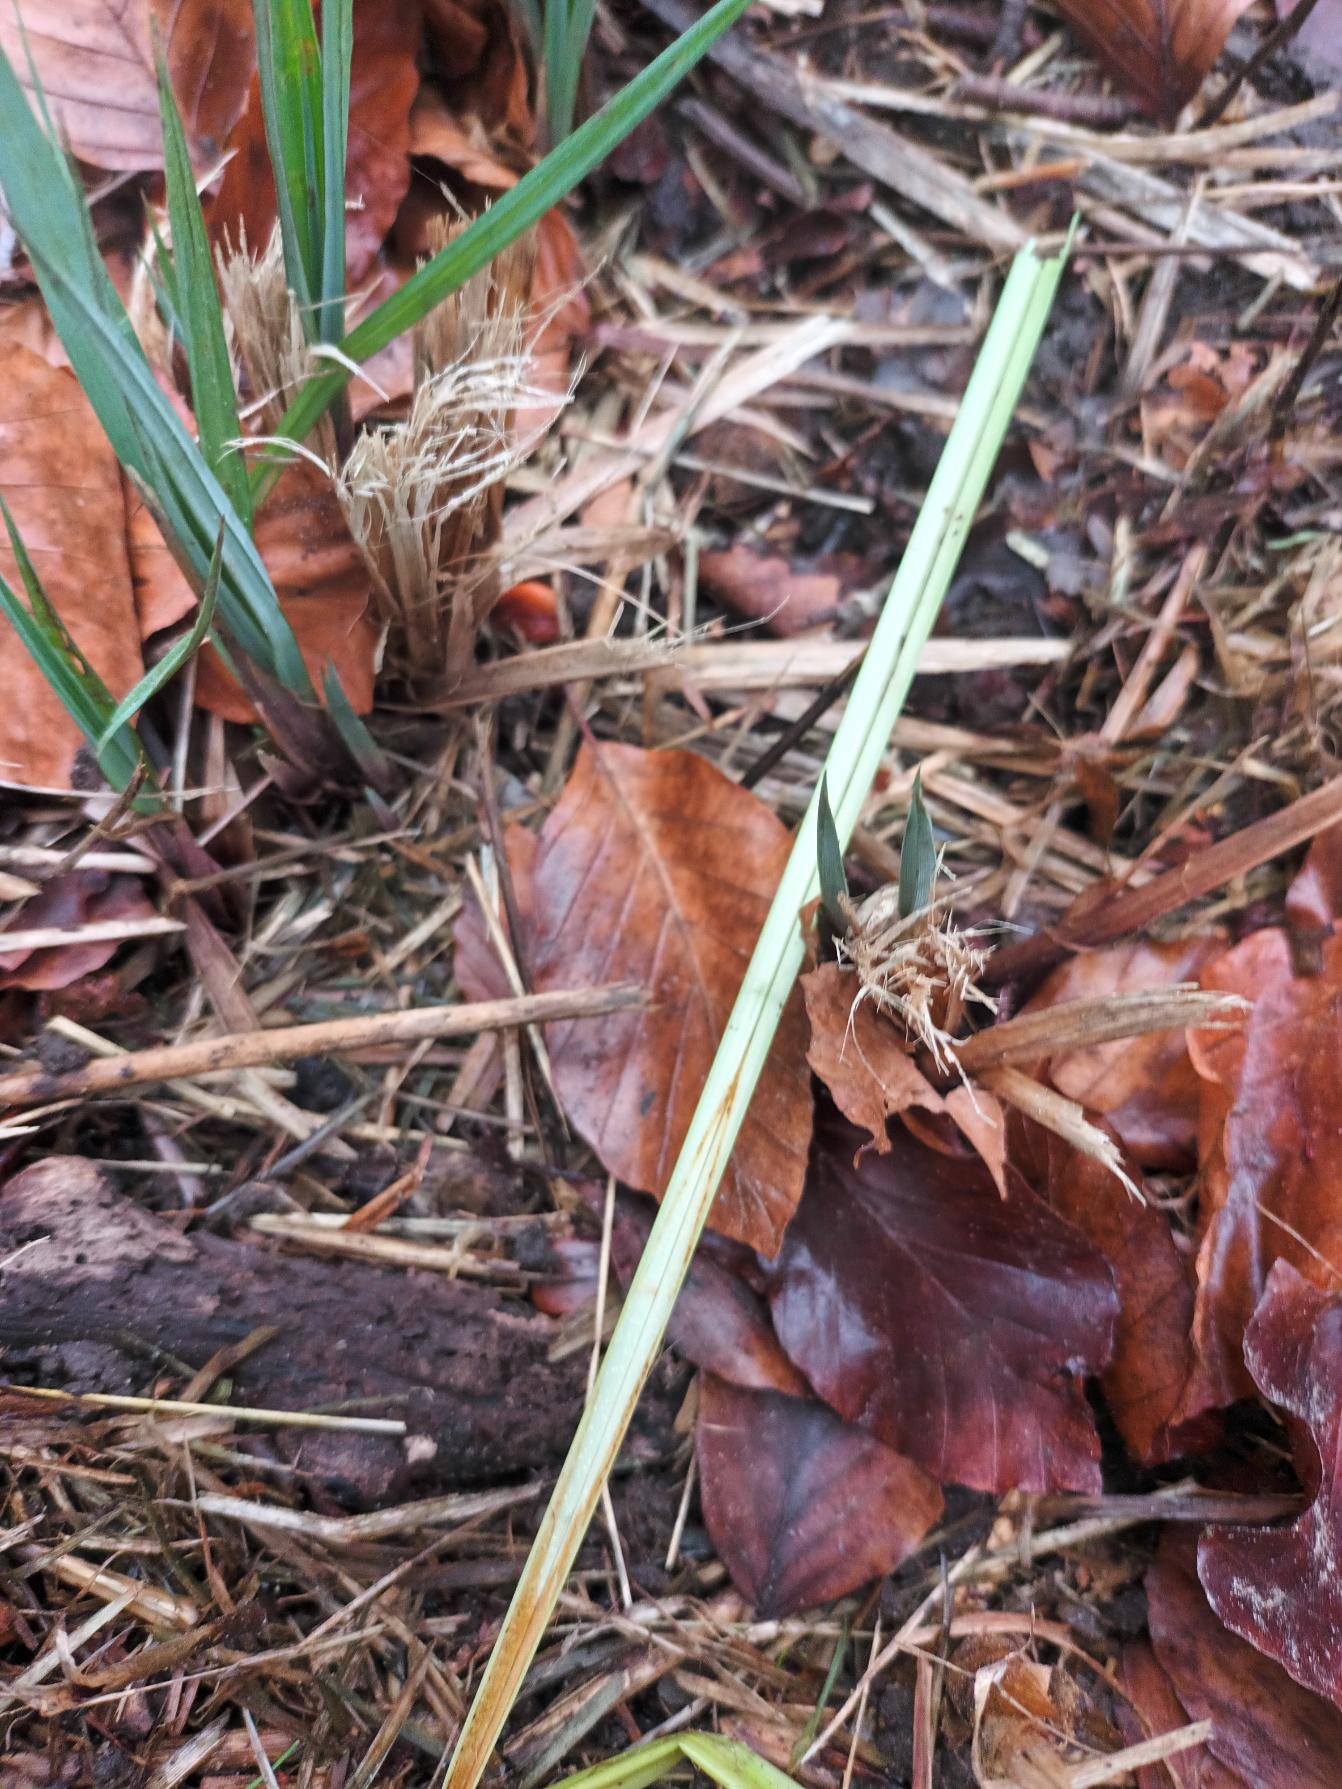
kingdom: Plantae
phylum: Tracheophyta
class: Liliopsida
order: Poales
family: Cyperaceae
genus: Carex
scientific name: Carex acutiformis
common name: Kær-star
